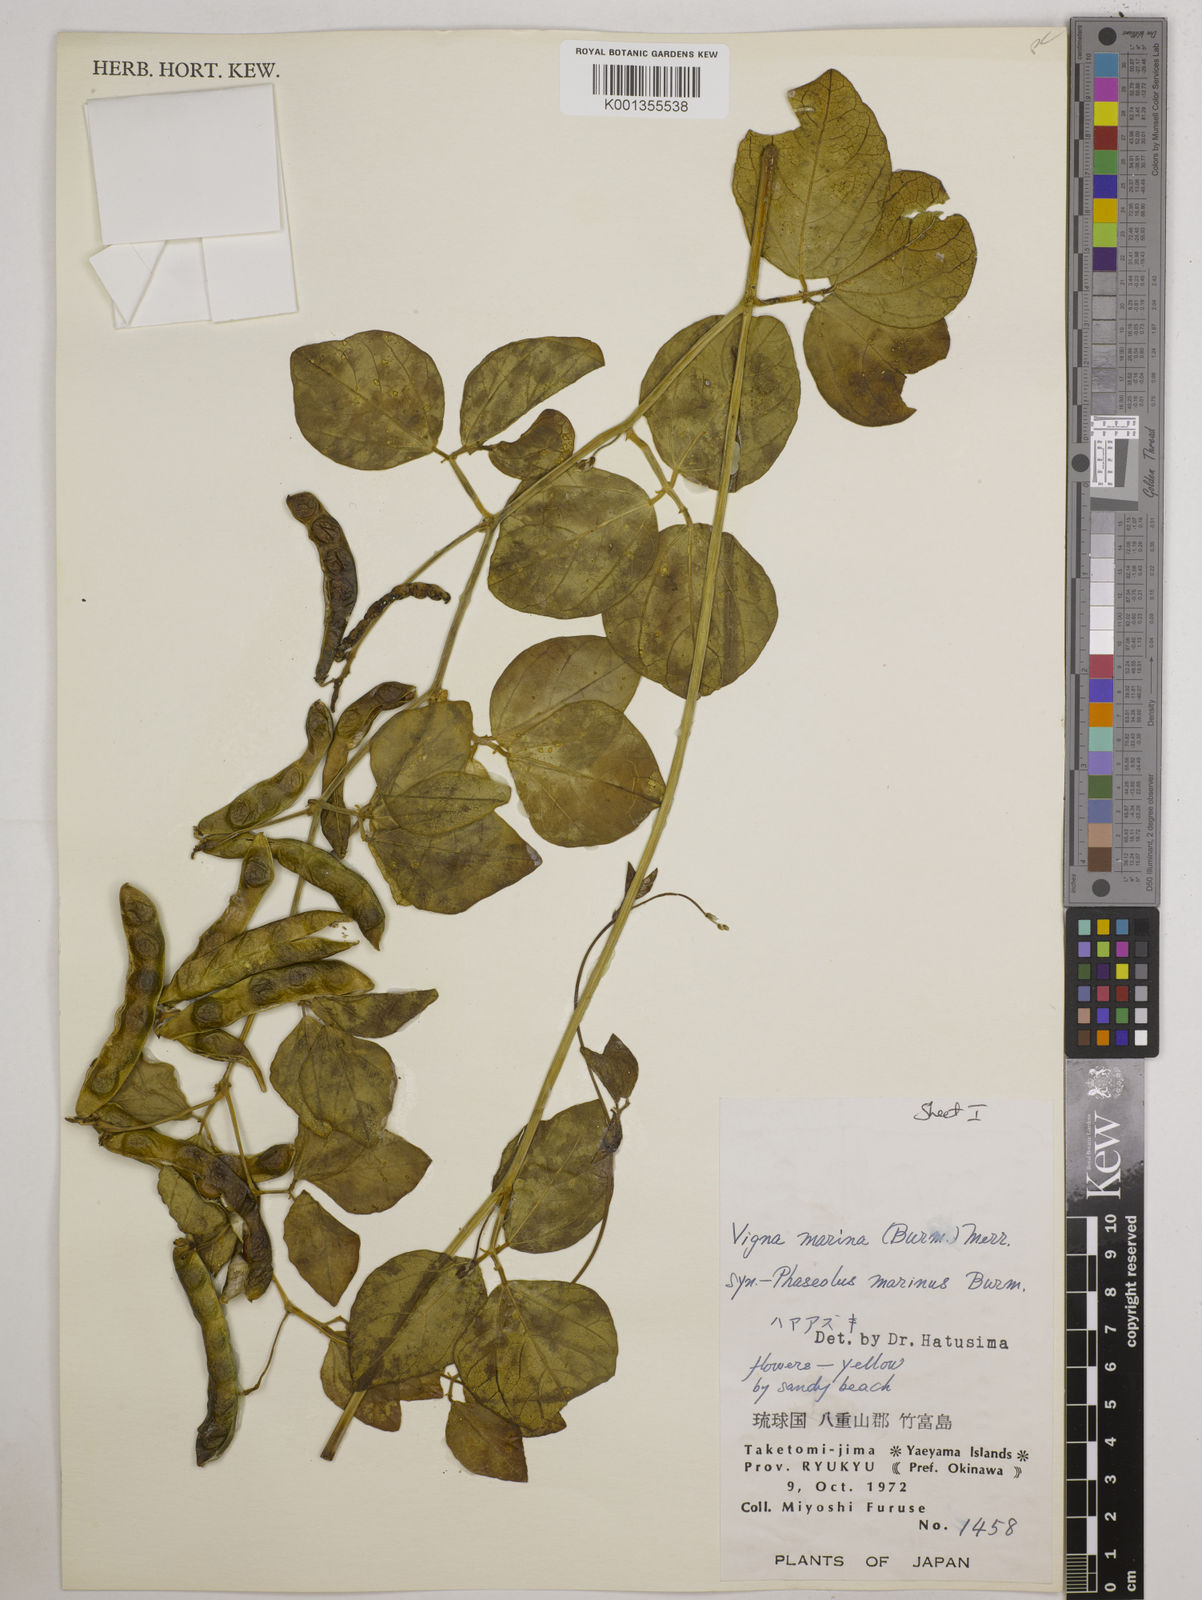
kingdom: Plantae
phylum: Tracheophyta
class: Magnoliopsida
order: Fabales
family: Fabaceae
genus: Vigna
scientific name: Vigna marina
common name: Dune-bean
